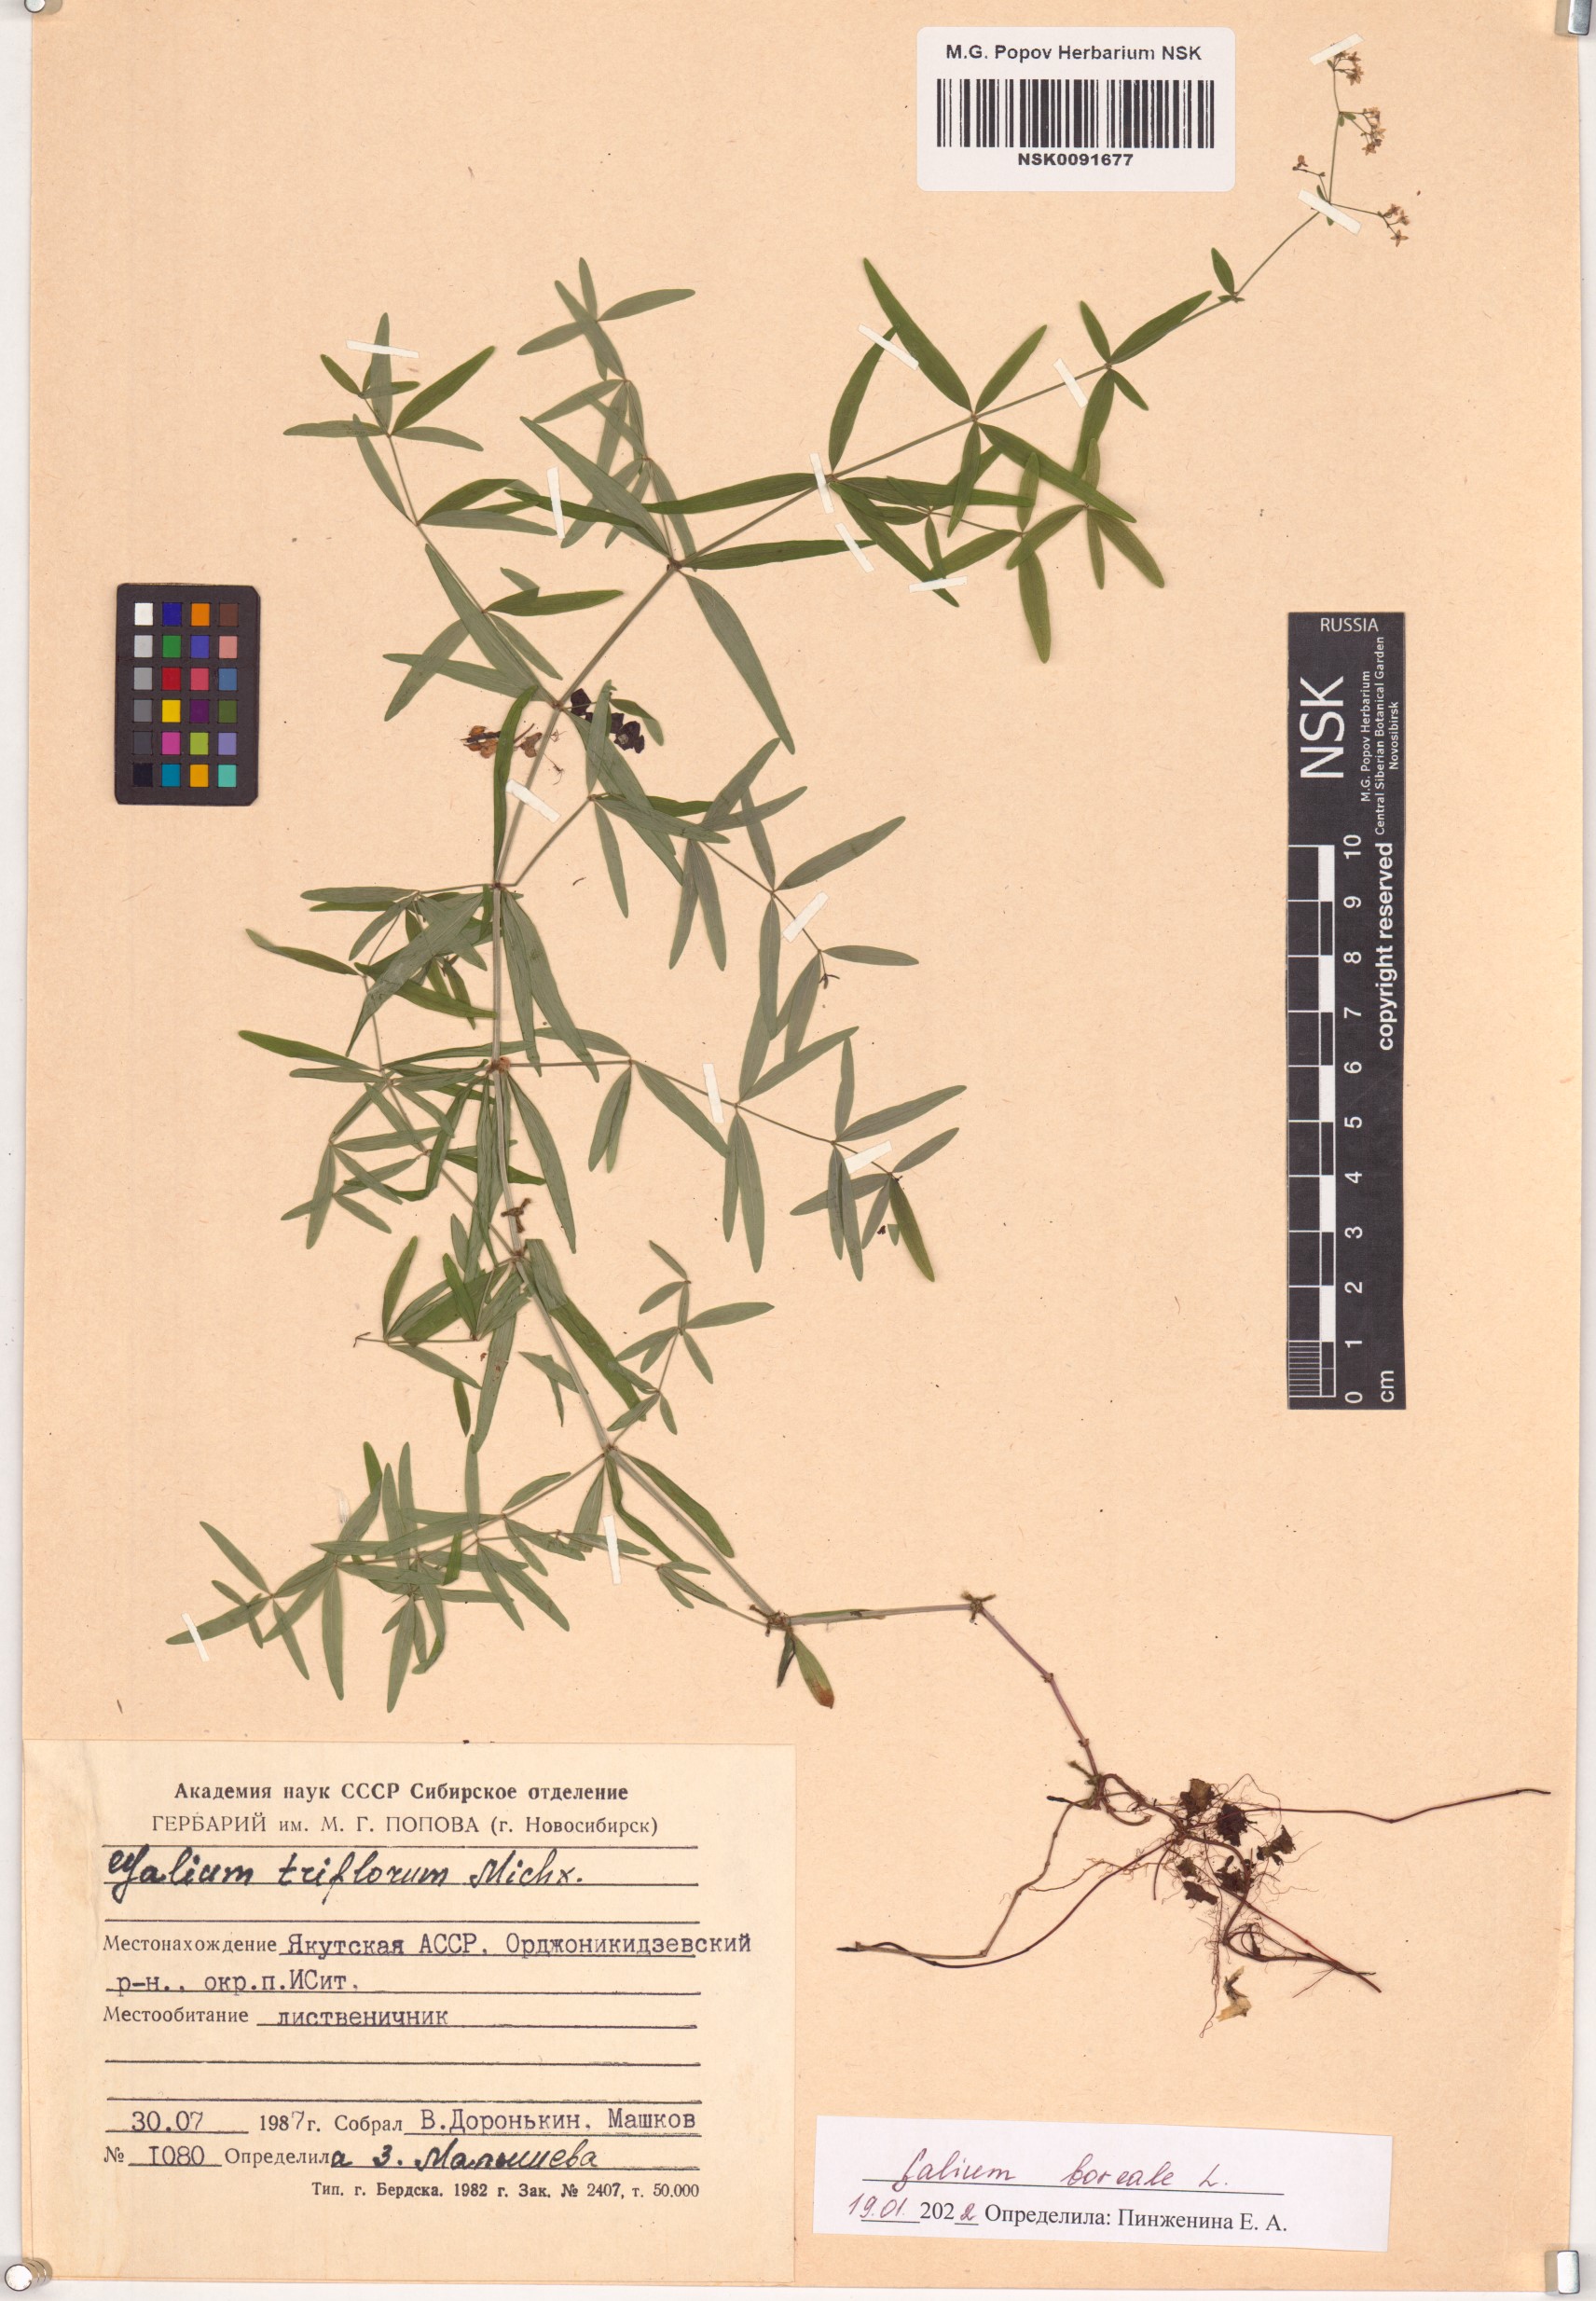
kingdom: Plantae
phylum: Tracheophyta
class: Magnoliopsida
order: Gentianales
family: Rubiaceae
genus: Galium
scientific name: Galium boreale
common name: Northern bedstraw
